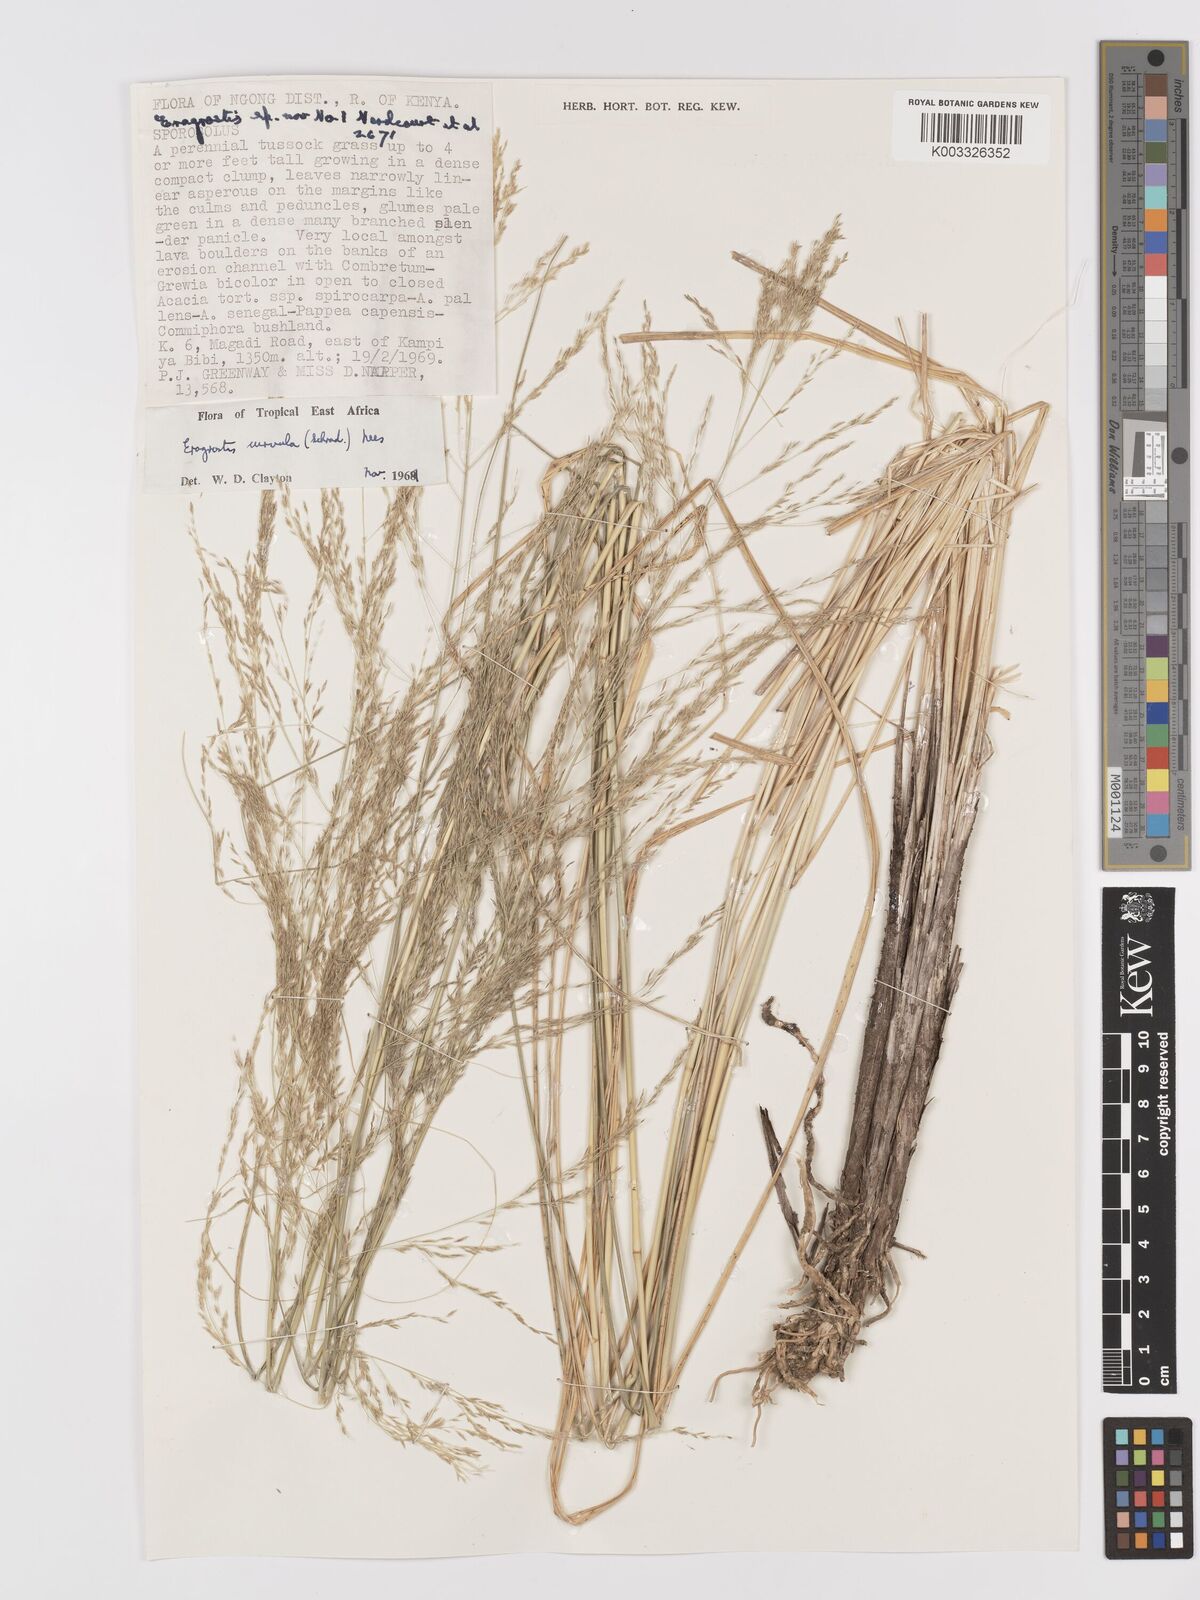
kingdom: Plantae
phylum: Tracheophyta
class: Liliopsida
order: Poales
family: Poaceae
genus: Eragrostis
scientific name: Eragrostis curvula
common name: African love-grass
